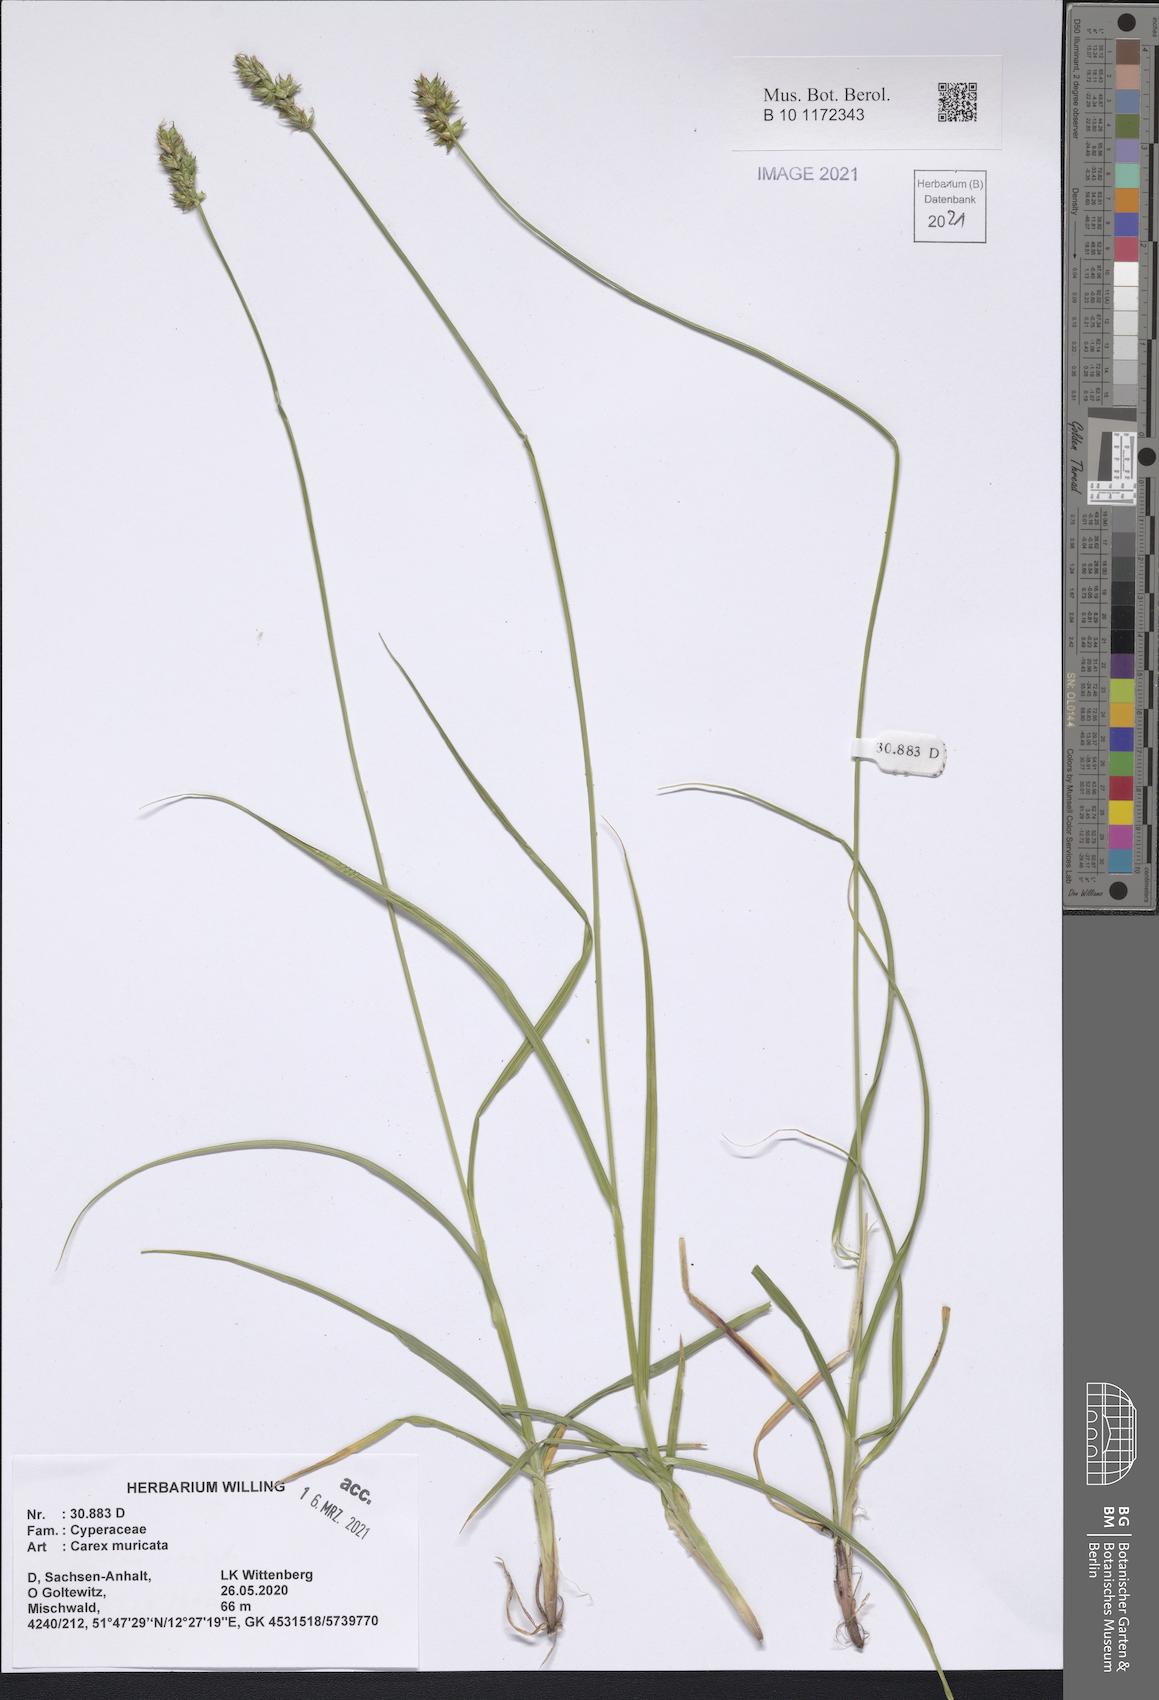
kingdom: Plantae
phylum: Tracheophyta
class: Liliopsida
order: Poales
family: Cyperaceae
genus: Carex
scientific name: Carex muricata
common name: Rough sedge
